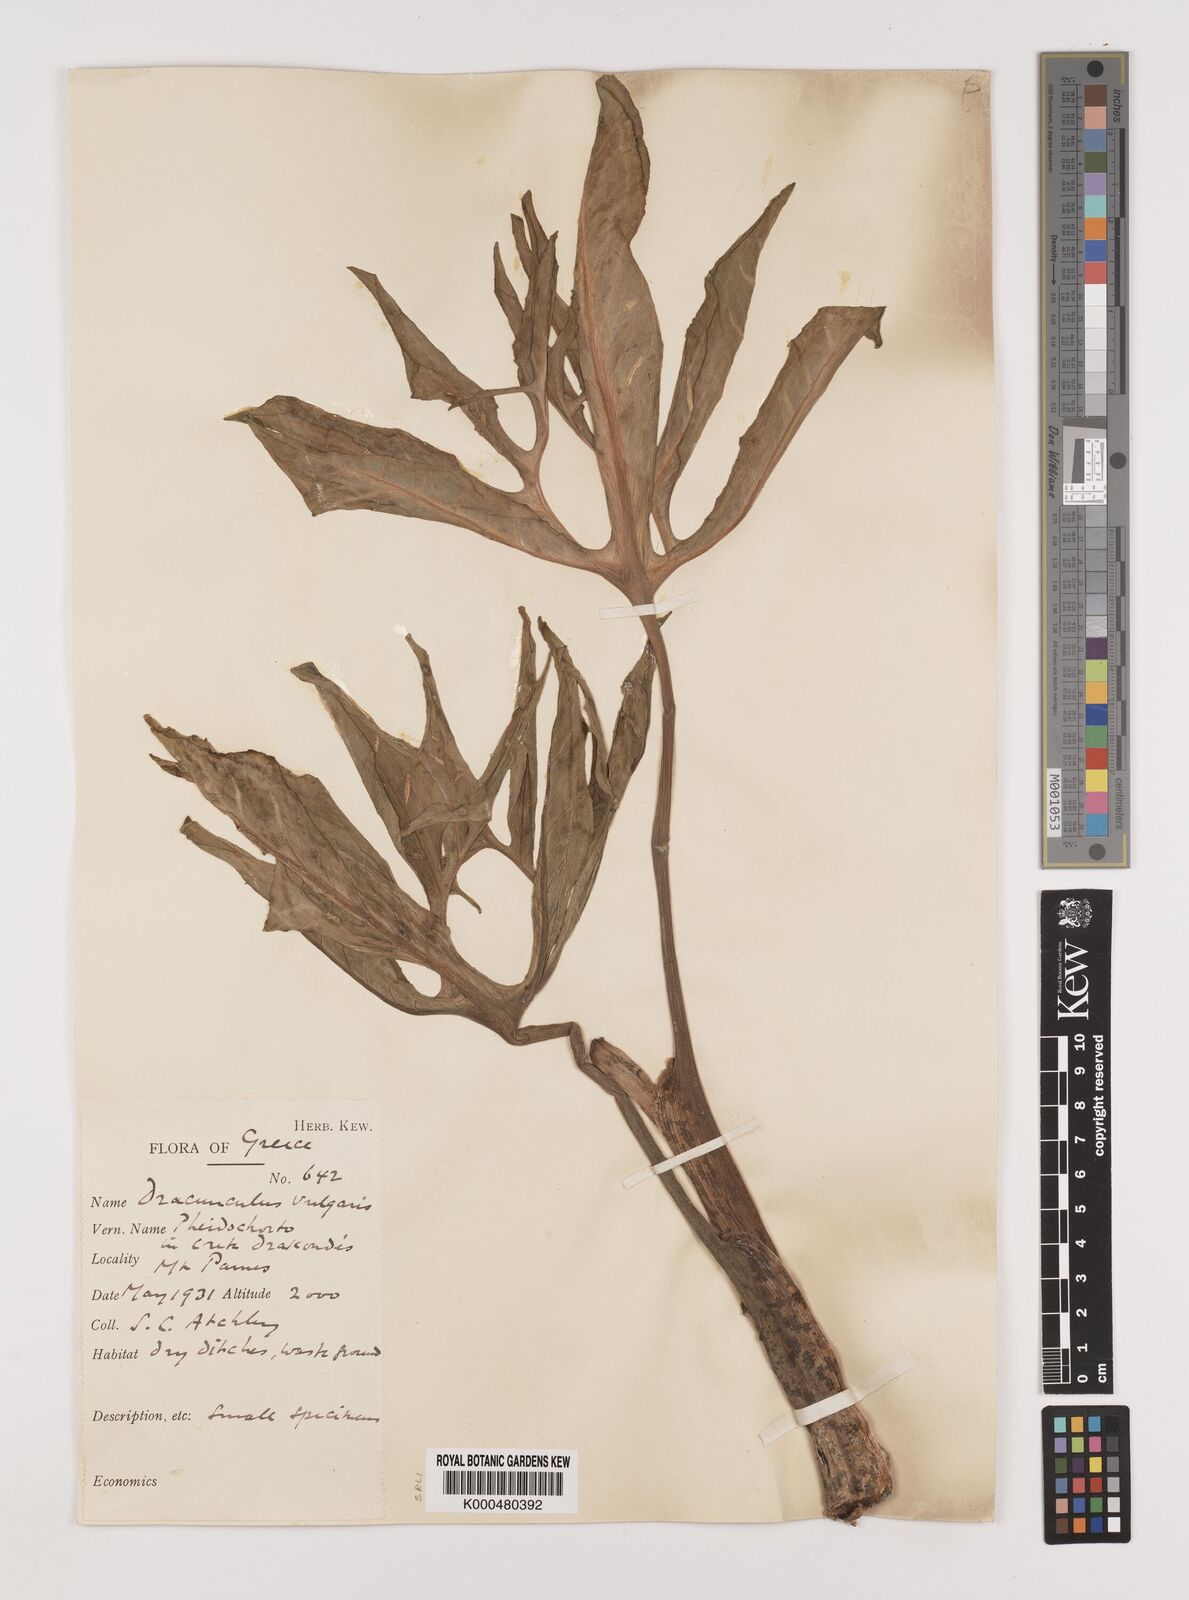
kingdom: Plantae
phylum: Tracheophyta
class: Liliopsida
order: Alismatales
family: Araceae
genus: Dracunculus
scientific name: Dracunculus vulgaris
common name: Dragon arum
